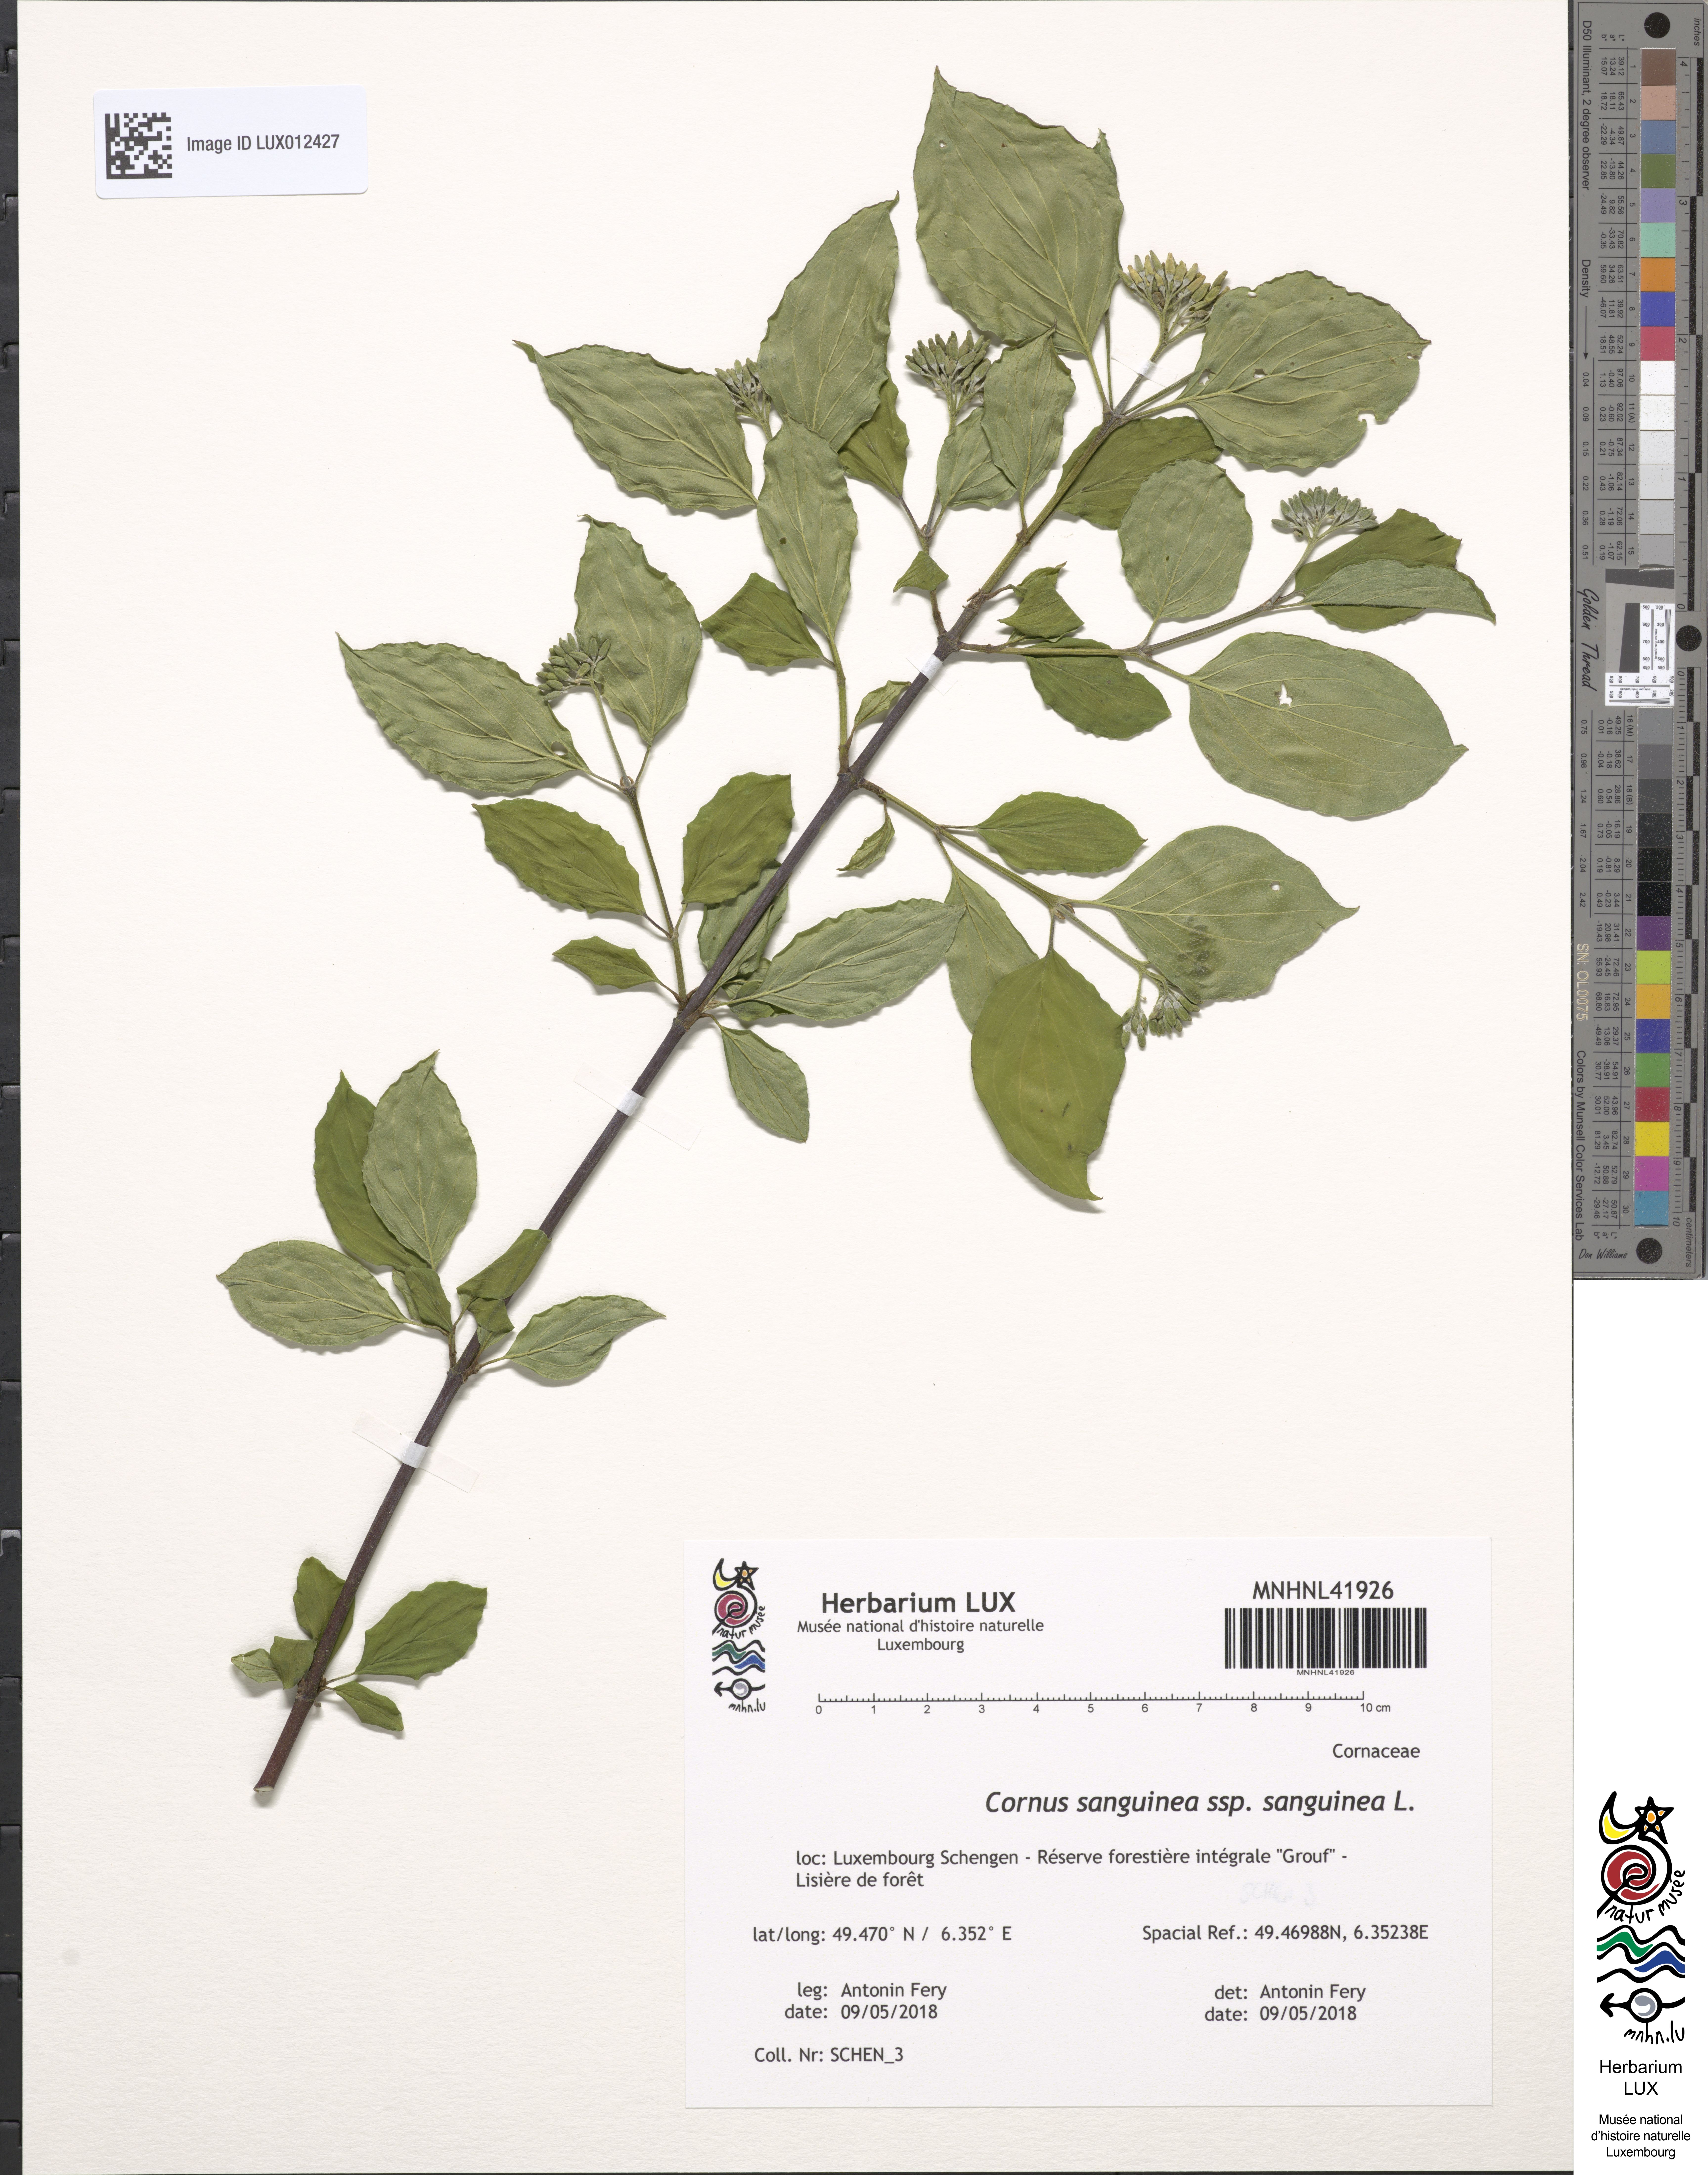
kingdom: Plantae
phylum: Tracheophyta
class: Magnoliopsida
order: Cornales
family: Cornaceae
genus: Cornus
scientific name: Cornus sanguinea
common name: Dogwood
